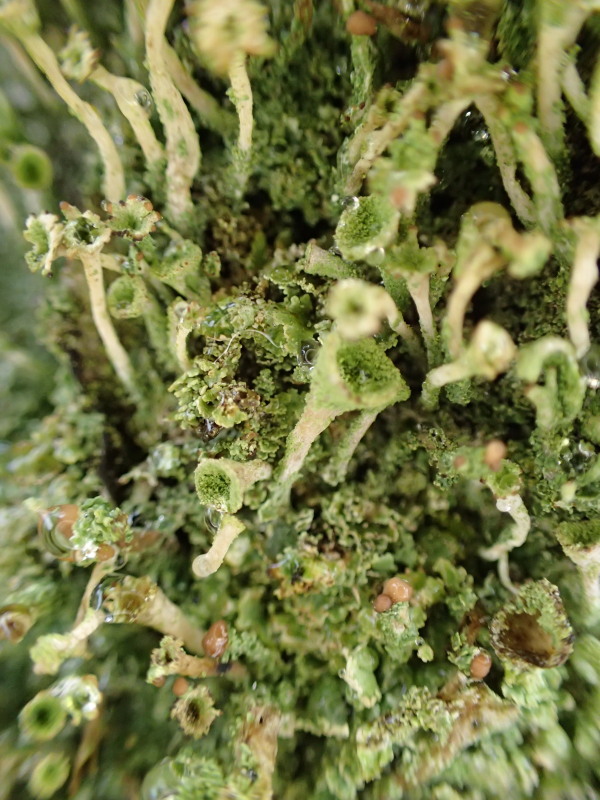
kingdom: Fungi
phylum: Ascomycota
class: Lecanoromycetes
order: Lecanorales
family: Cladoniaceae
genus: Cladonia
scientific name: Cladonia fimbriata
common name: bleggrøn bægerlav
